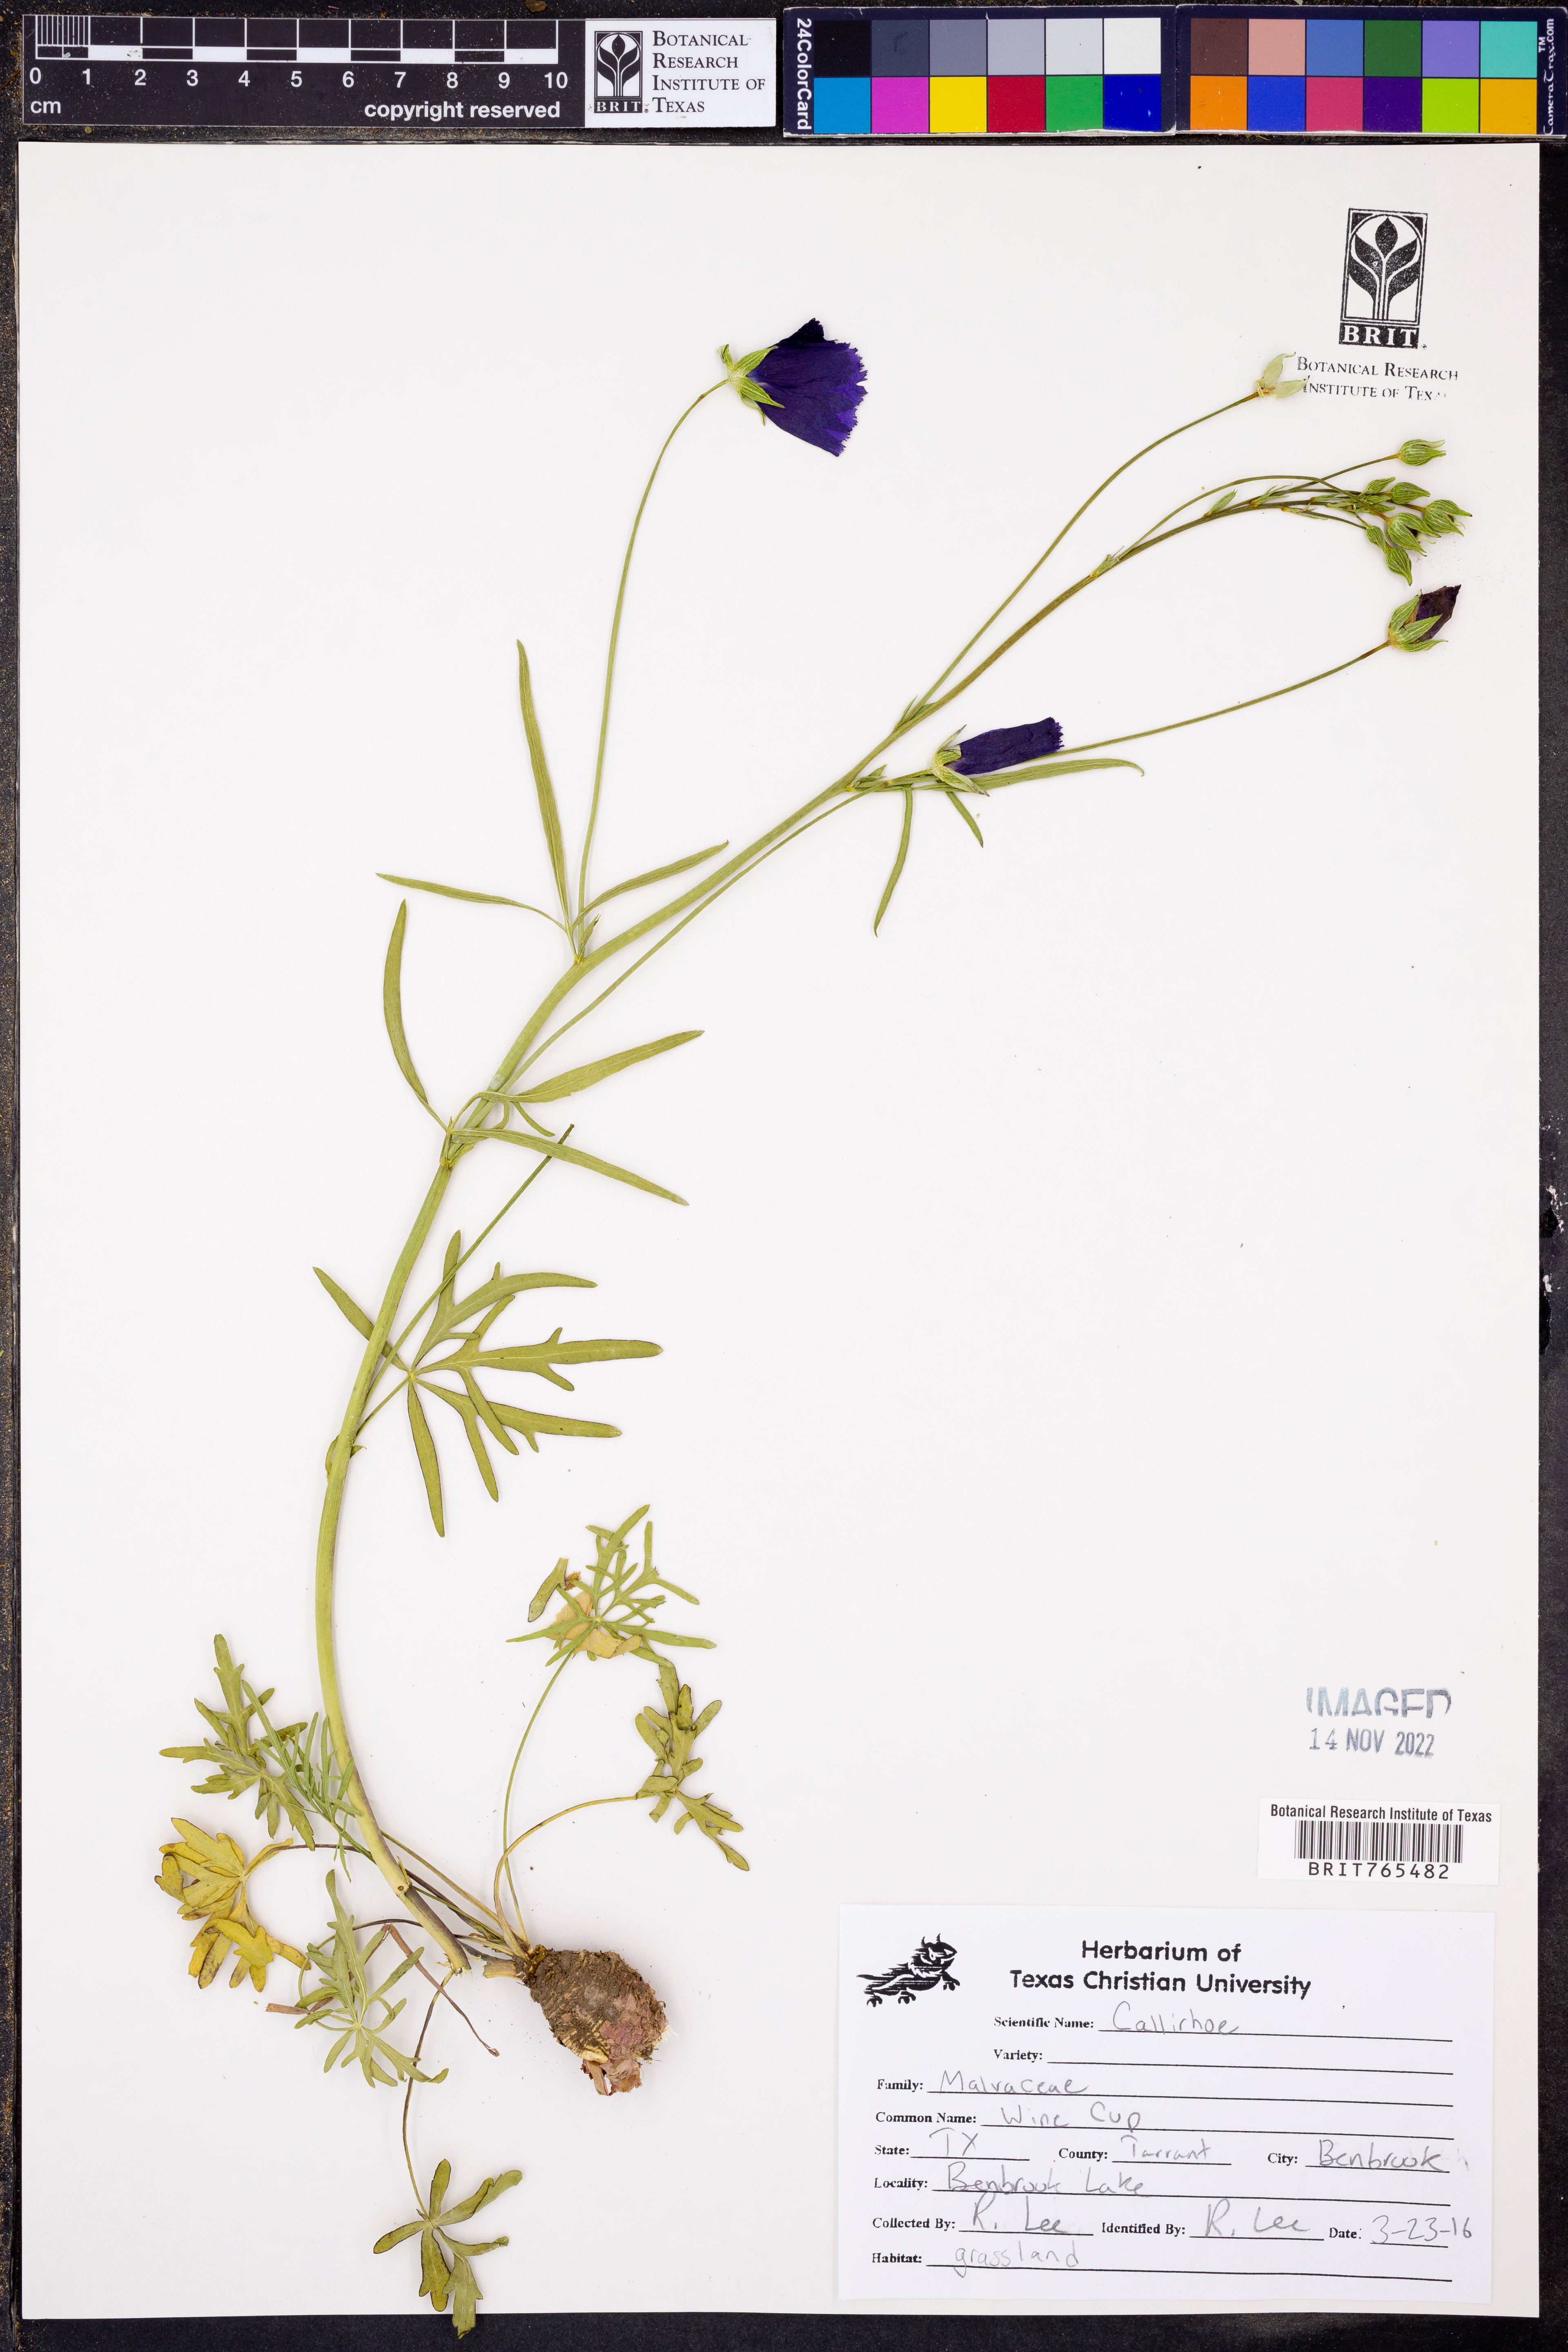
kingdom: Plantae
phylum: Tracheophyta
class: Magnoliopsida
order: Malvales
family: Malvaceae
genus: Callirhoe
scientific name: Callirhoe
